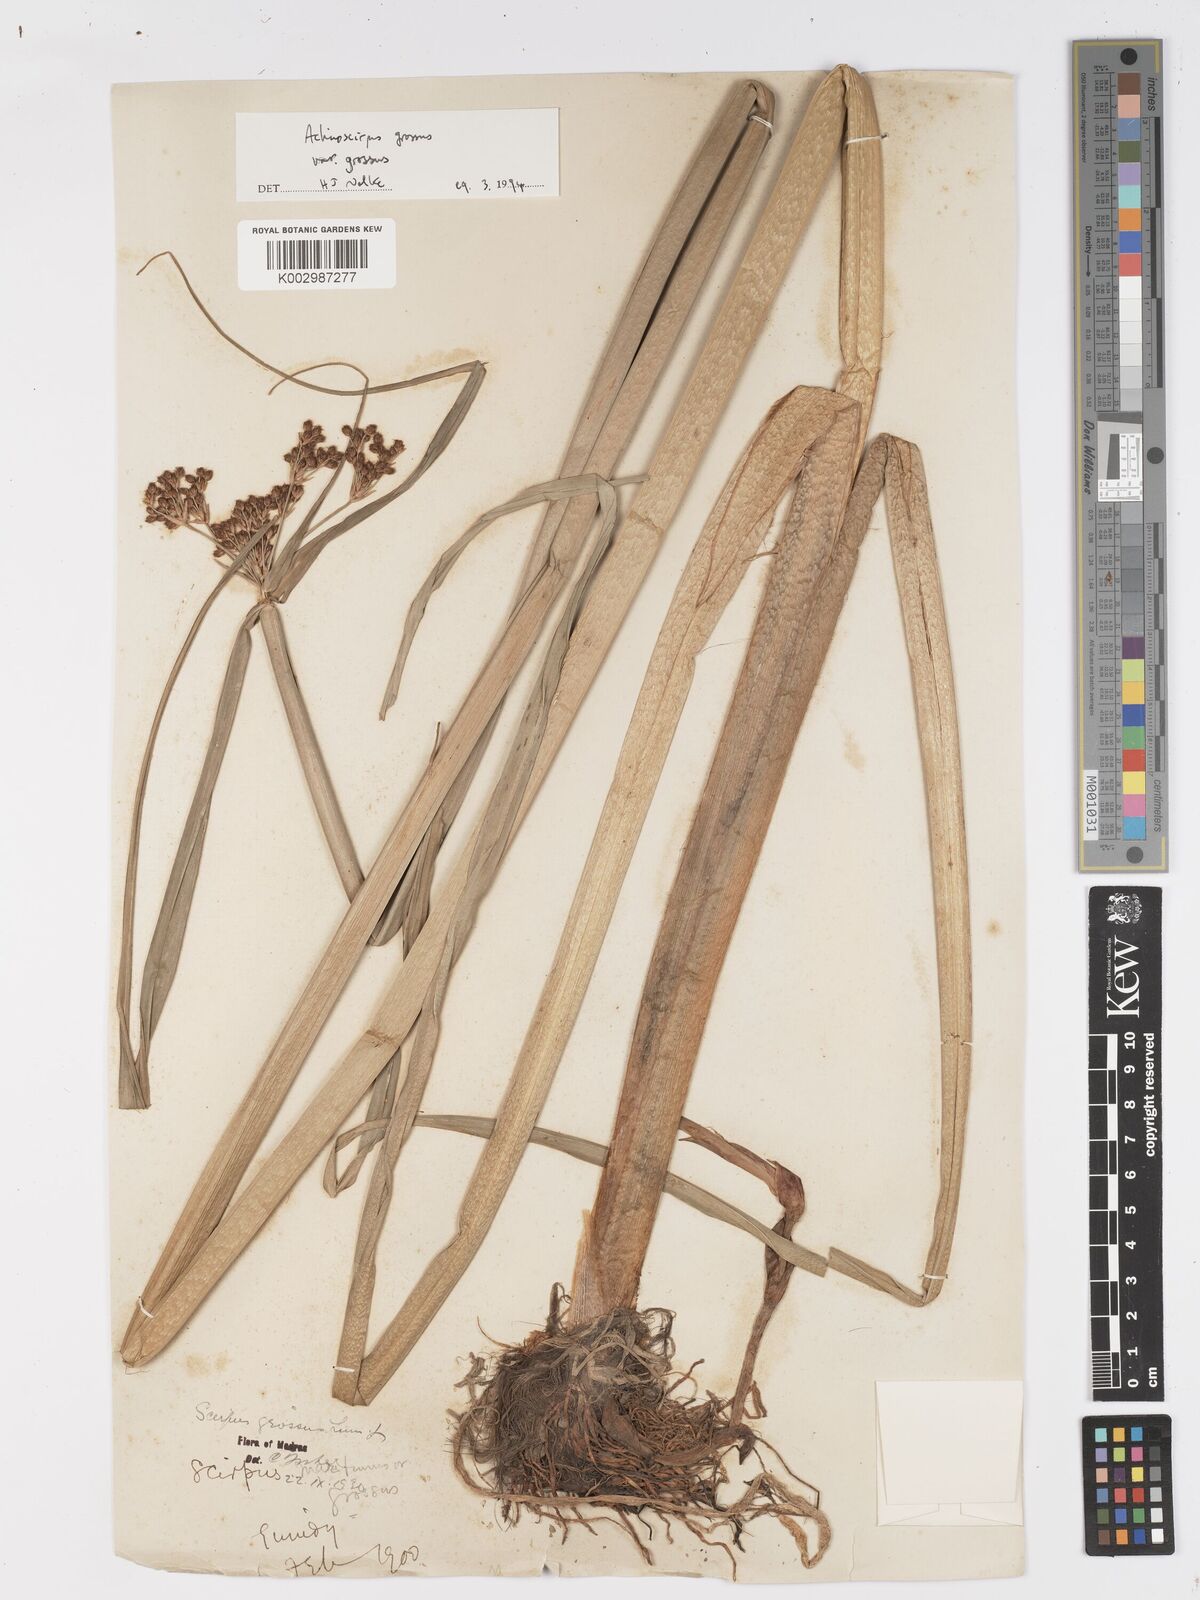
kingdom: Plantae
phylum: Tracheophyta
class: Liliopsida
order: Poales
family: Cyperaceae
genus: Actinoscirpus
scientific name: Actinoscirpus grossus
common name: Giant bur rush
